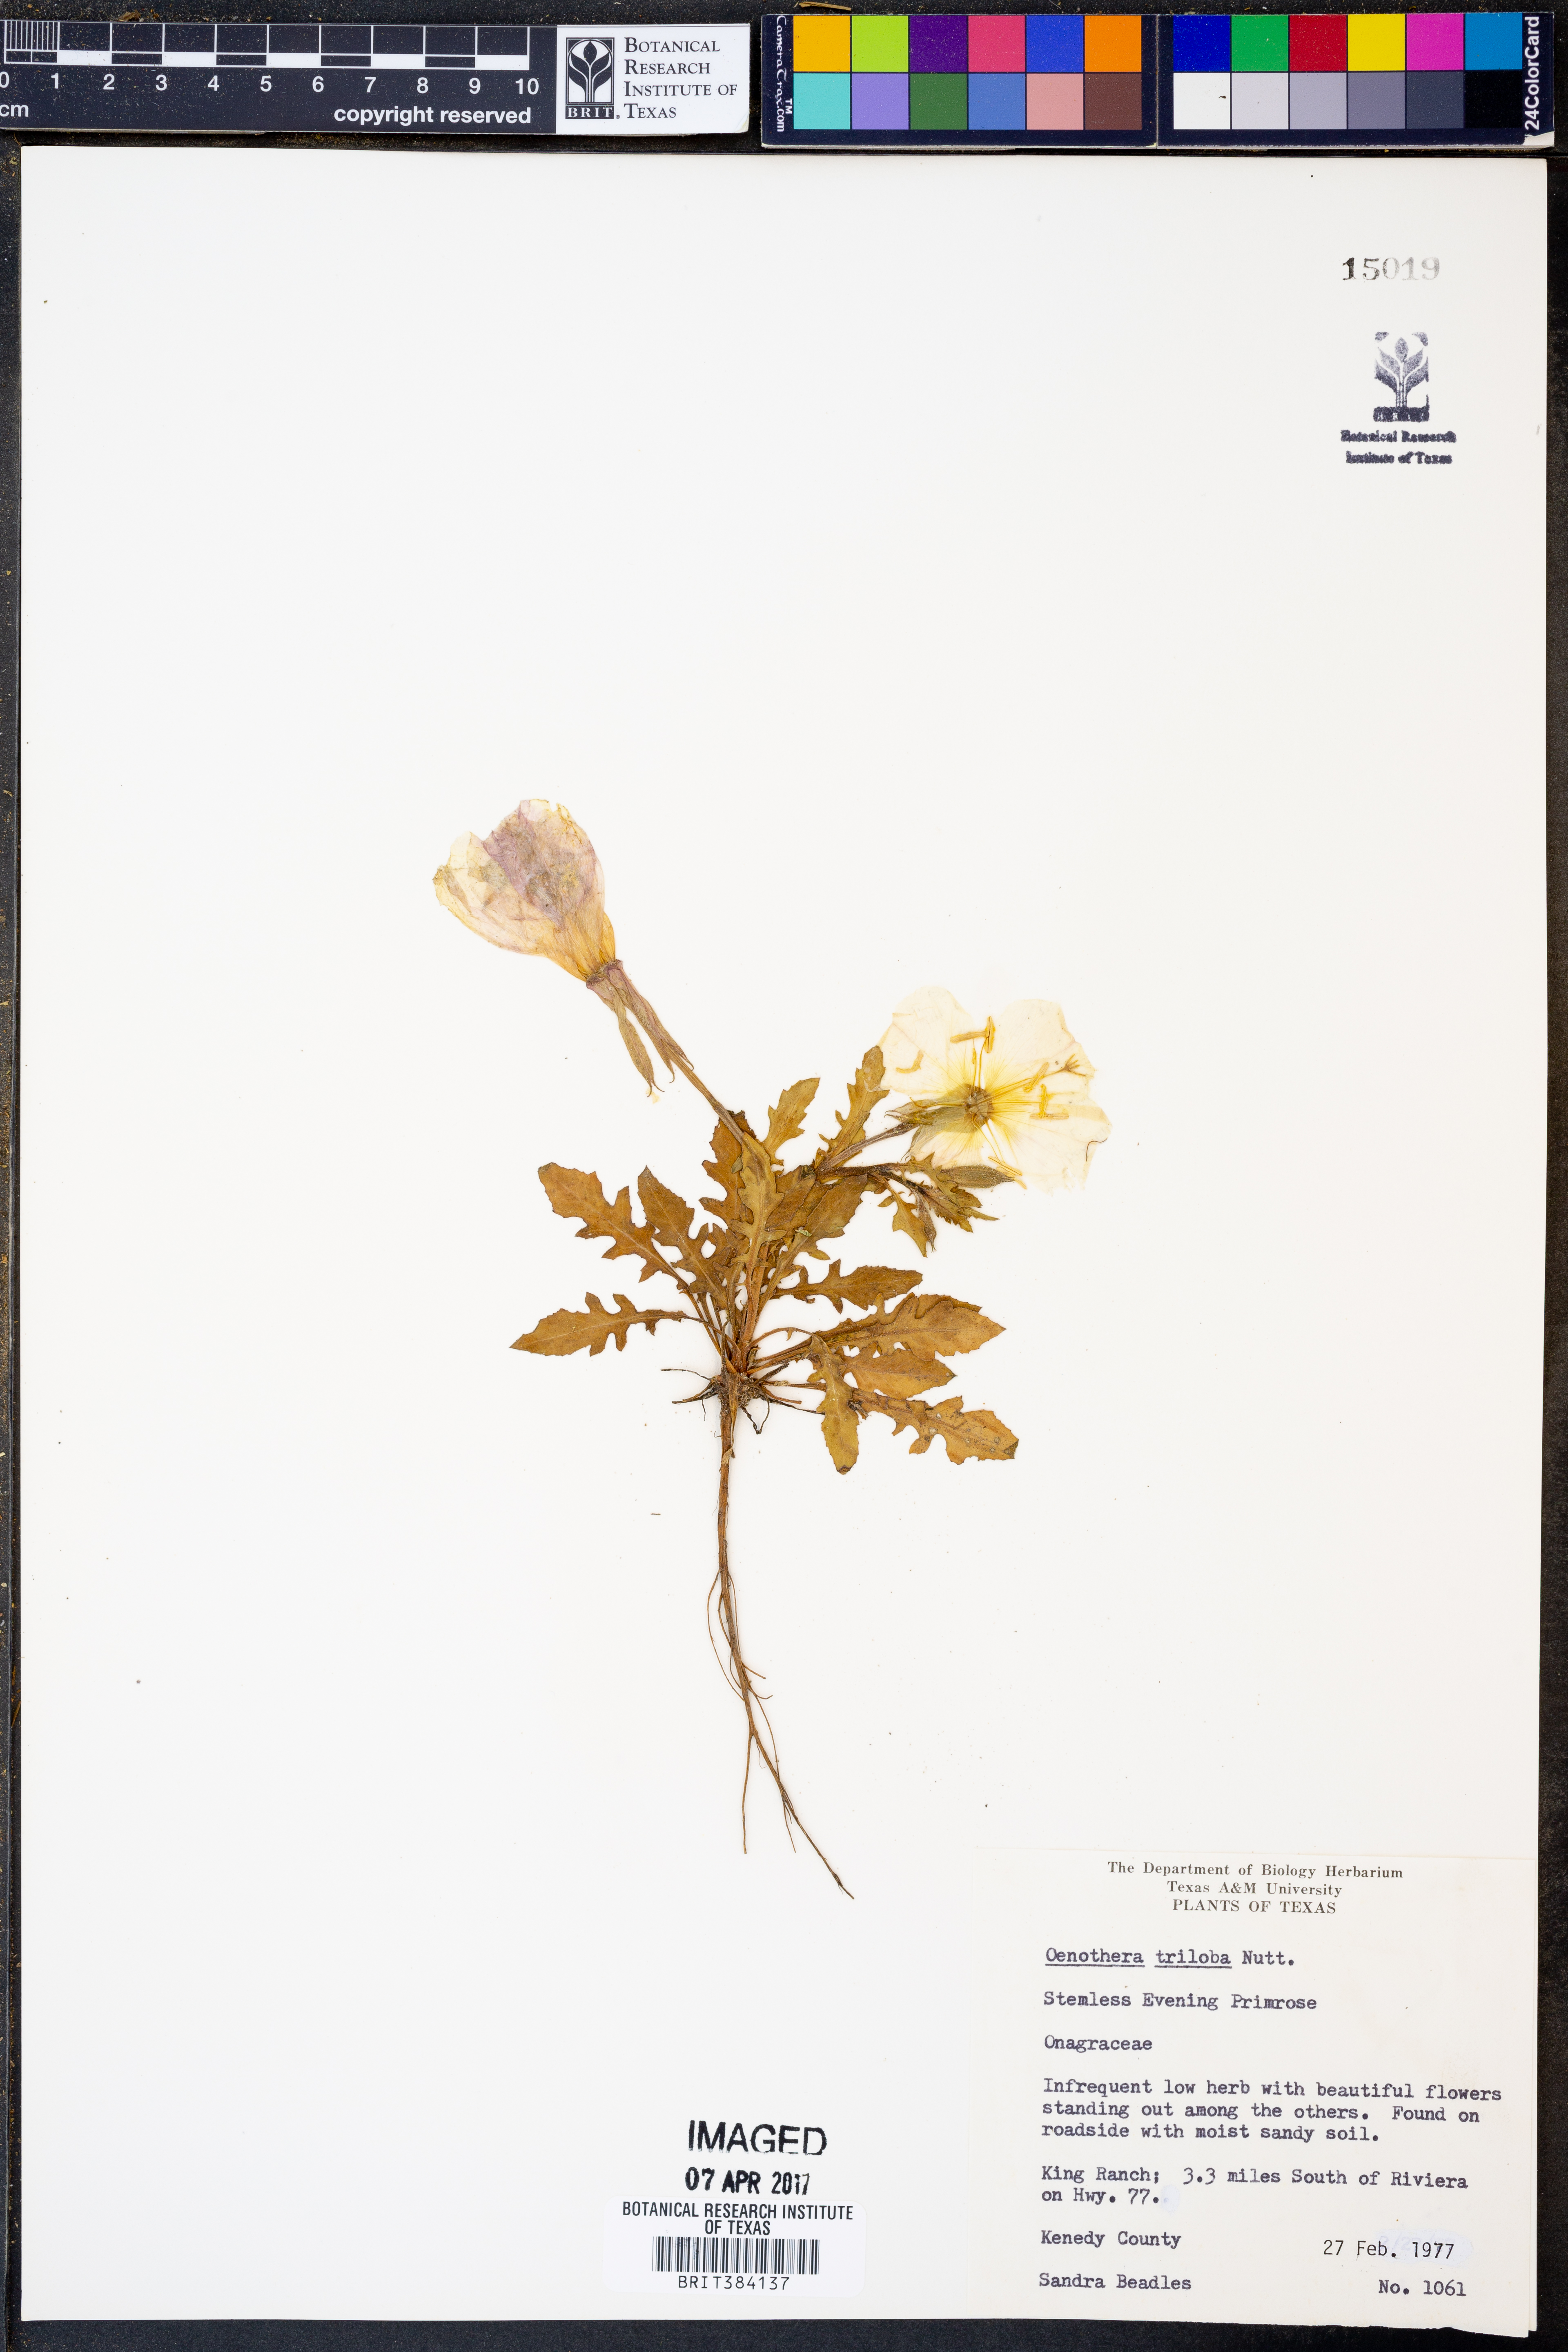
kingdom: Plantae
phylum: Tracheophyta
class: Magnoliopsida
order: Myrtales
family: Onagraceae
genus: Oenothera
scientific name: Oenothera triloba
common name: Sessile evening-primrose
